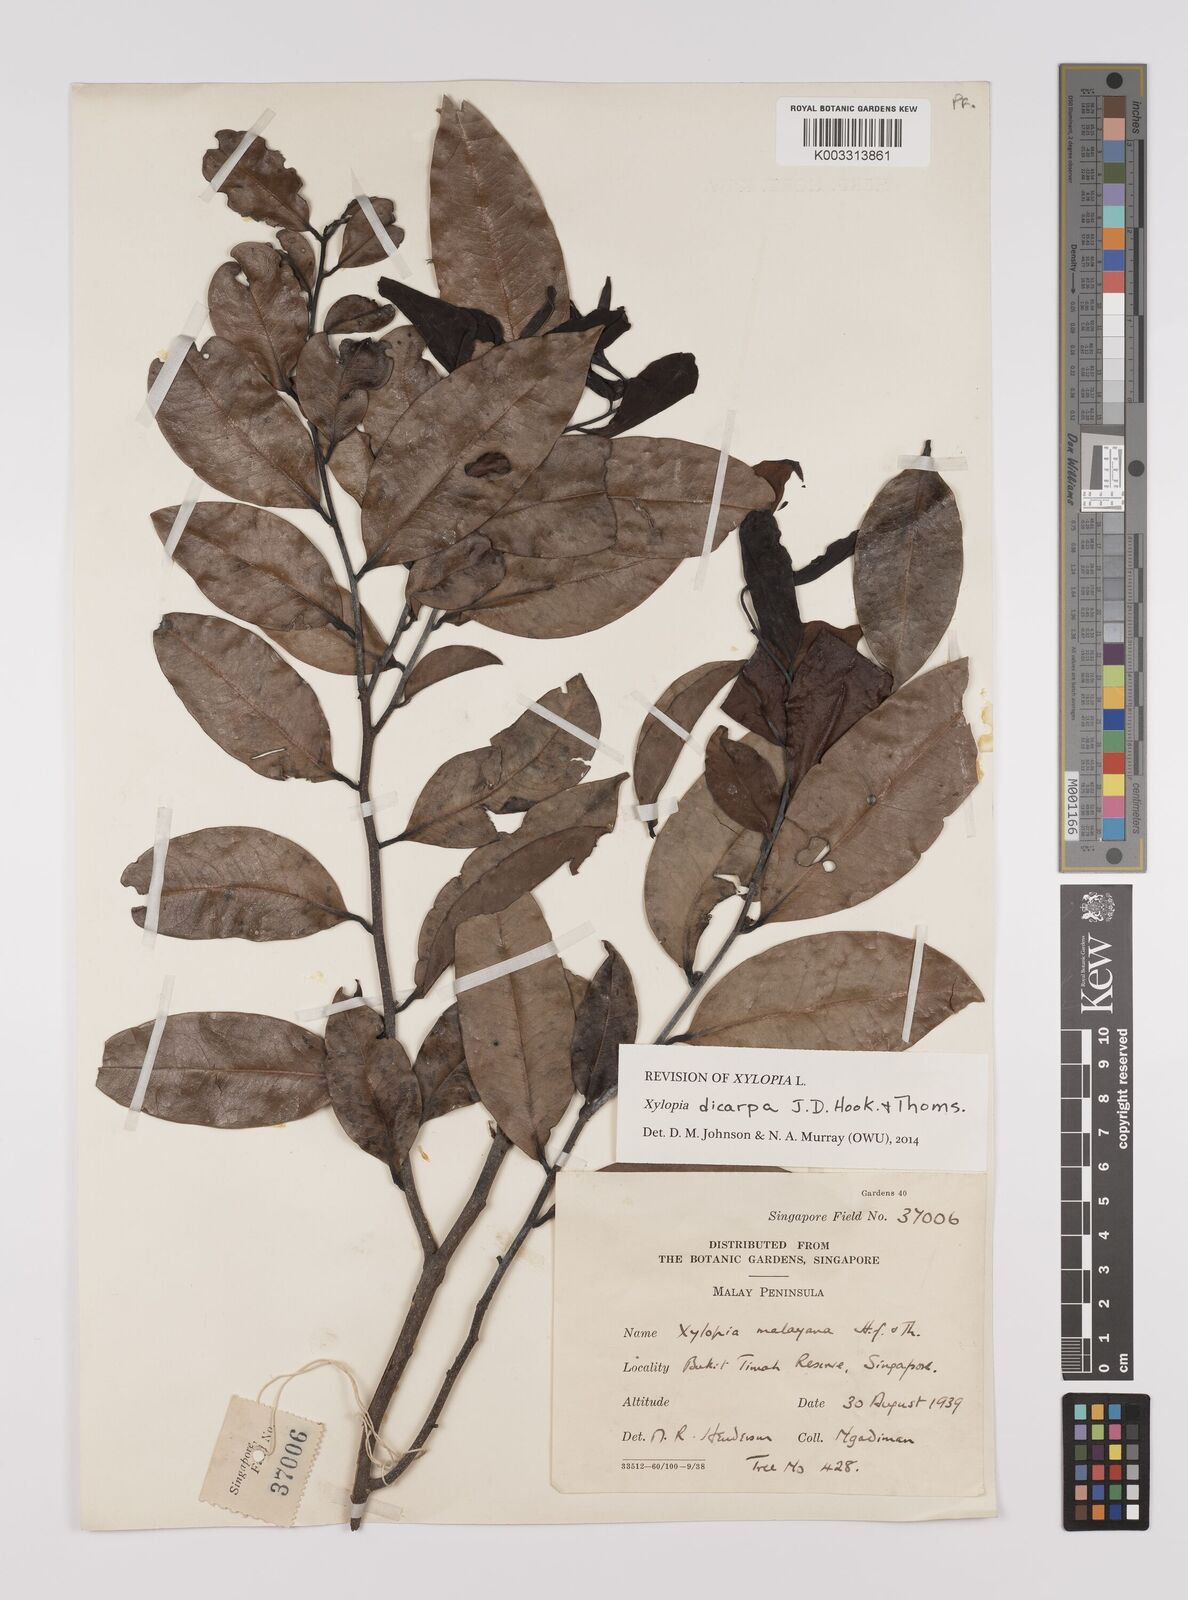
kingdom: Plantae
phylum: Tracheophyta
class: Magnoliopsida
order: Magnoliales
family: Annonaceae
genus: Xylopia
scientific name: Xylopia malayana
